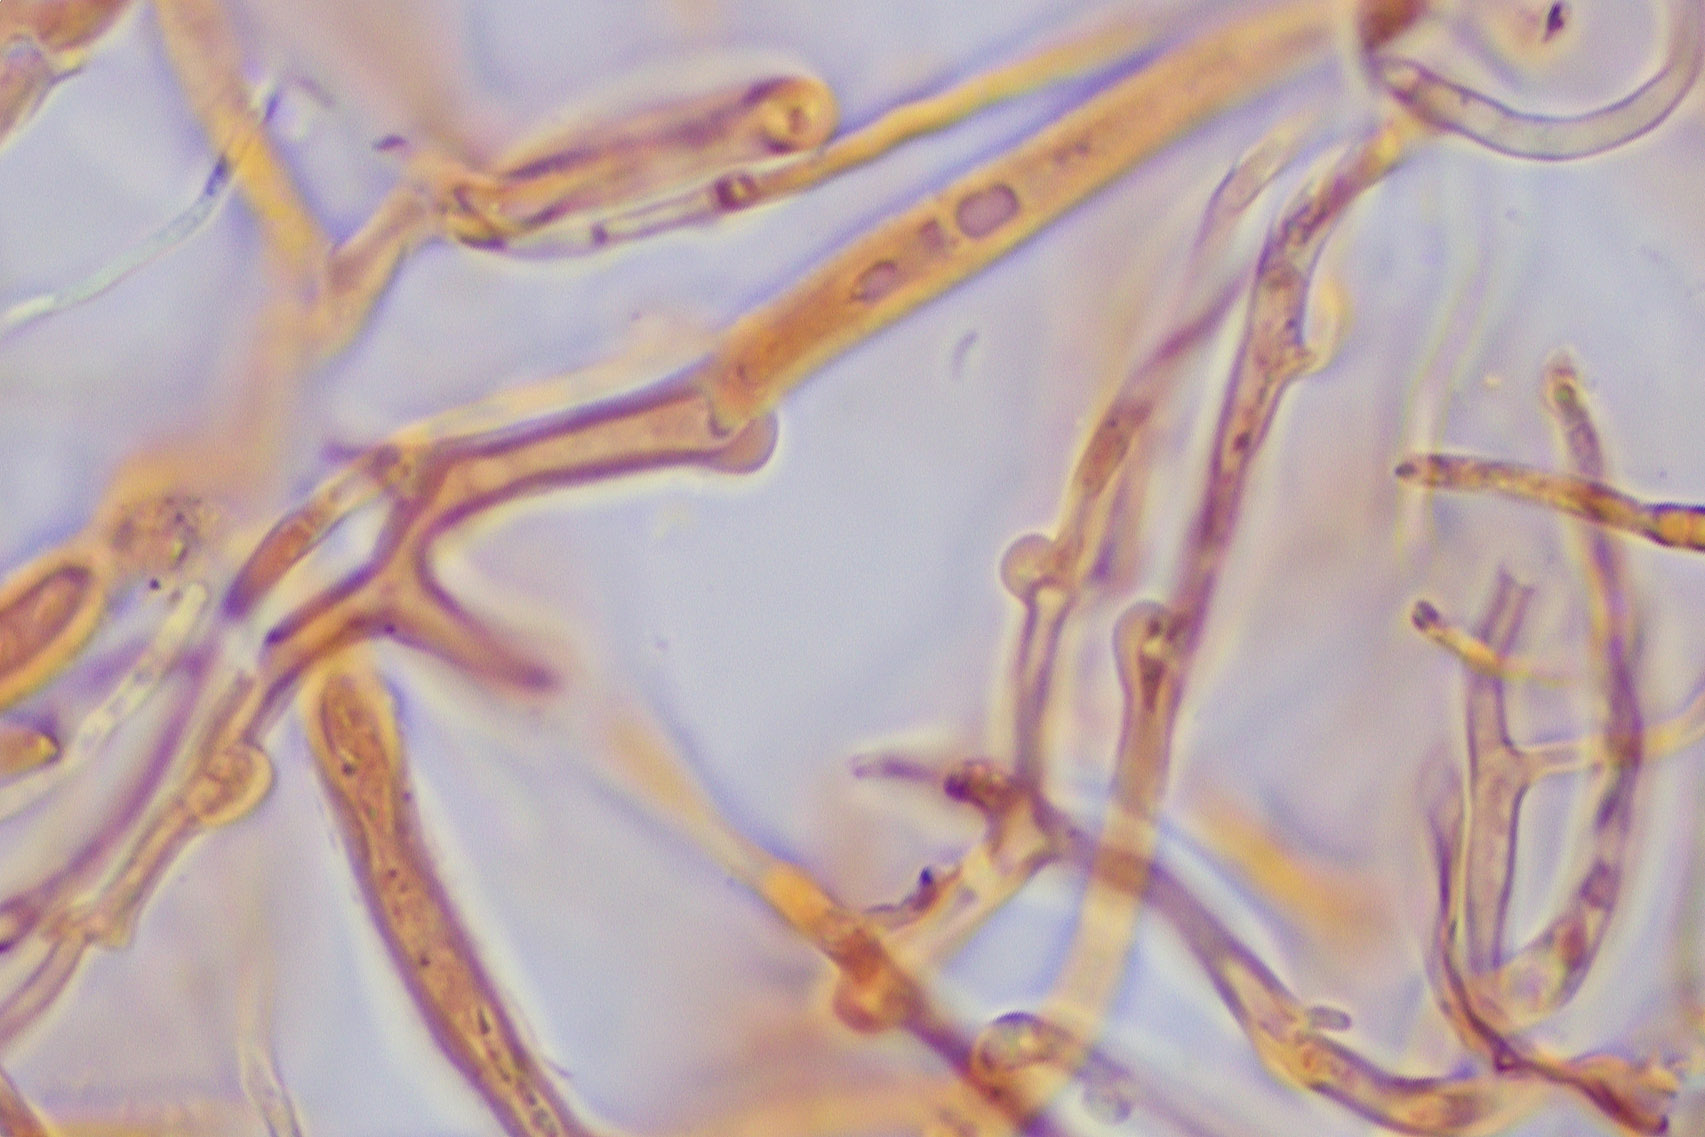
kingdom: Fungi
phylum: Basidiomycota
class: Dacrymycetes
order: Dacrymycetales
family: Dacrymycetaceae
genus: Dacrymyces
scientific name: Dacrymyces fennicus
